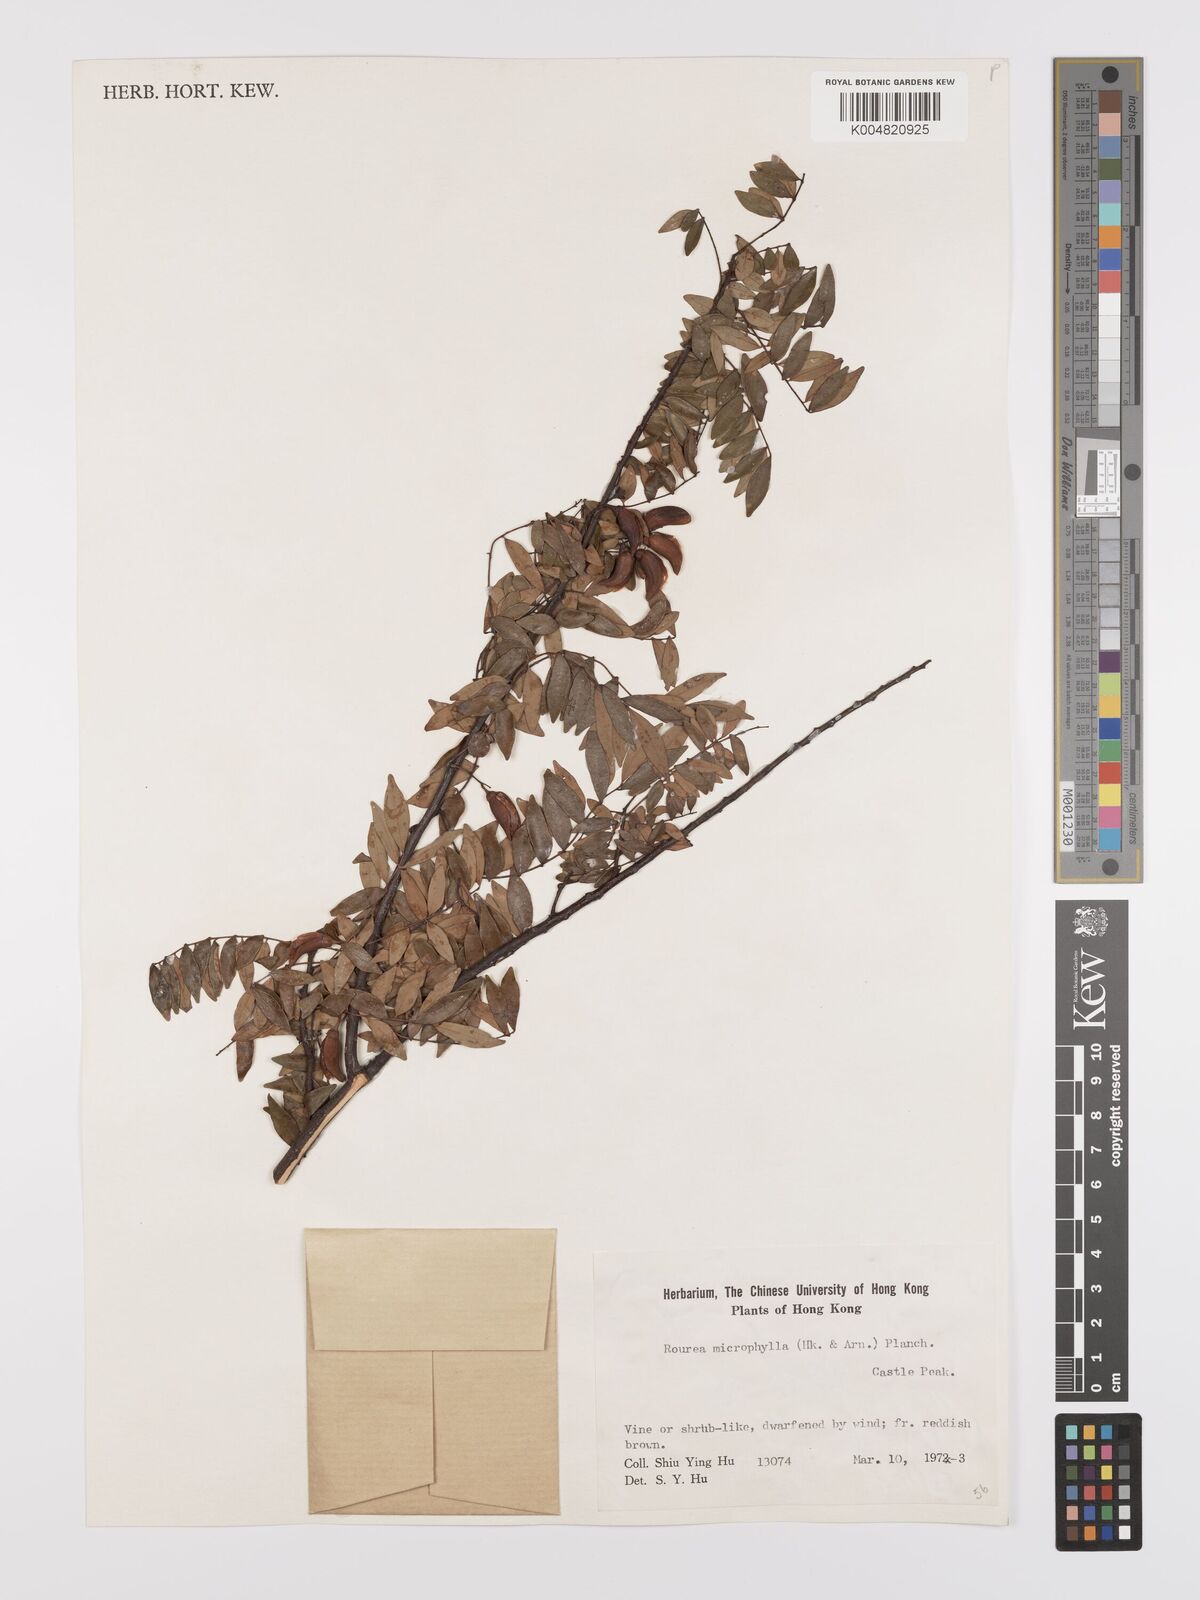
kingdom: Plantae
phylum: Tracheophyta
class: Magnoliopsida
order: Oxalidales
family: Connaraceae
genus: Rourea
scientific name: Rourea microphylla
